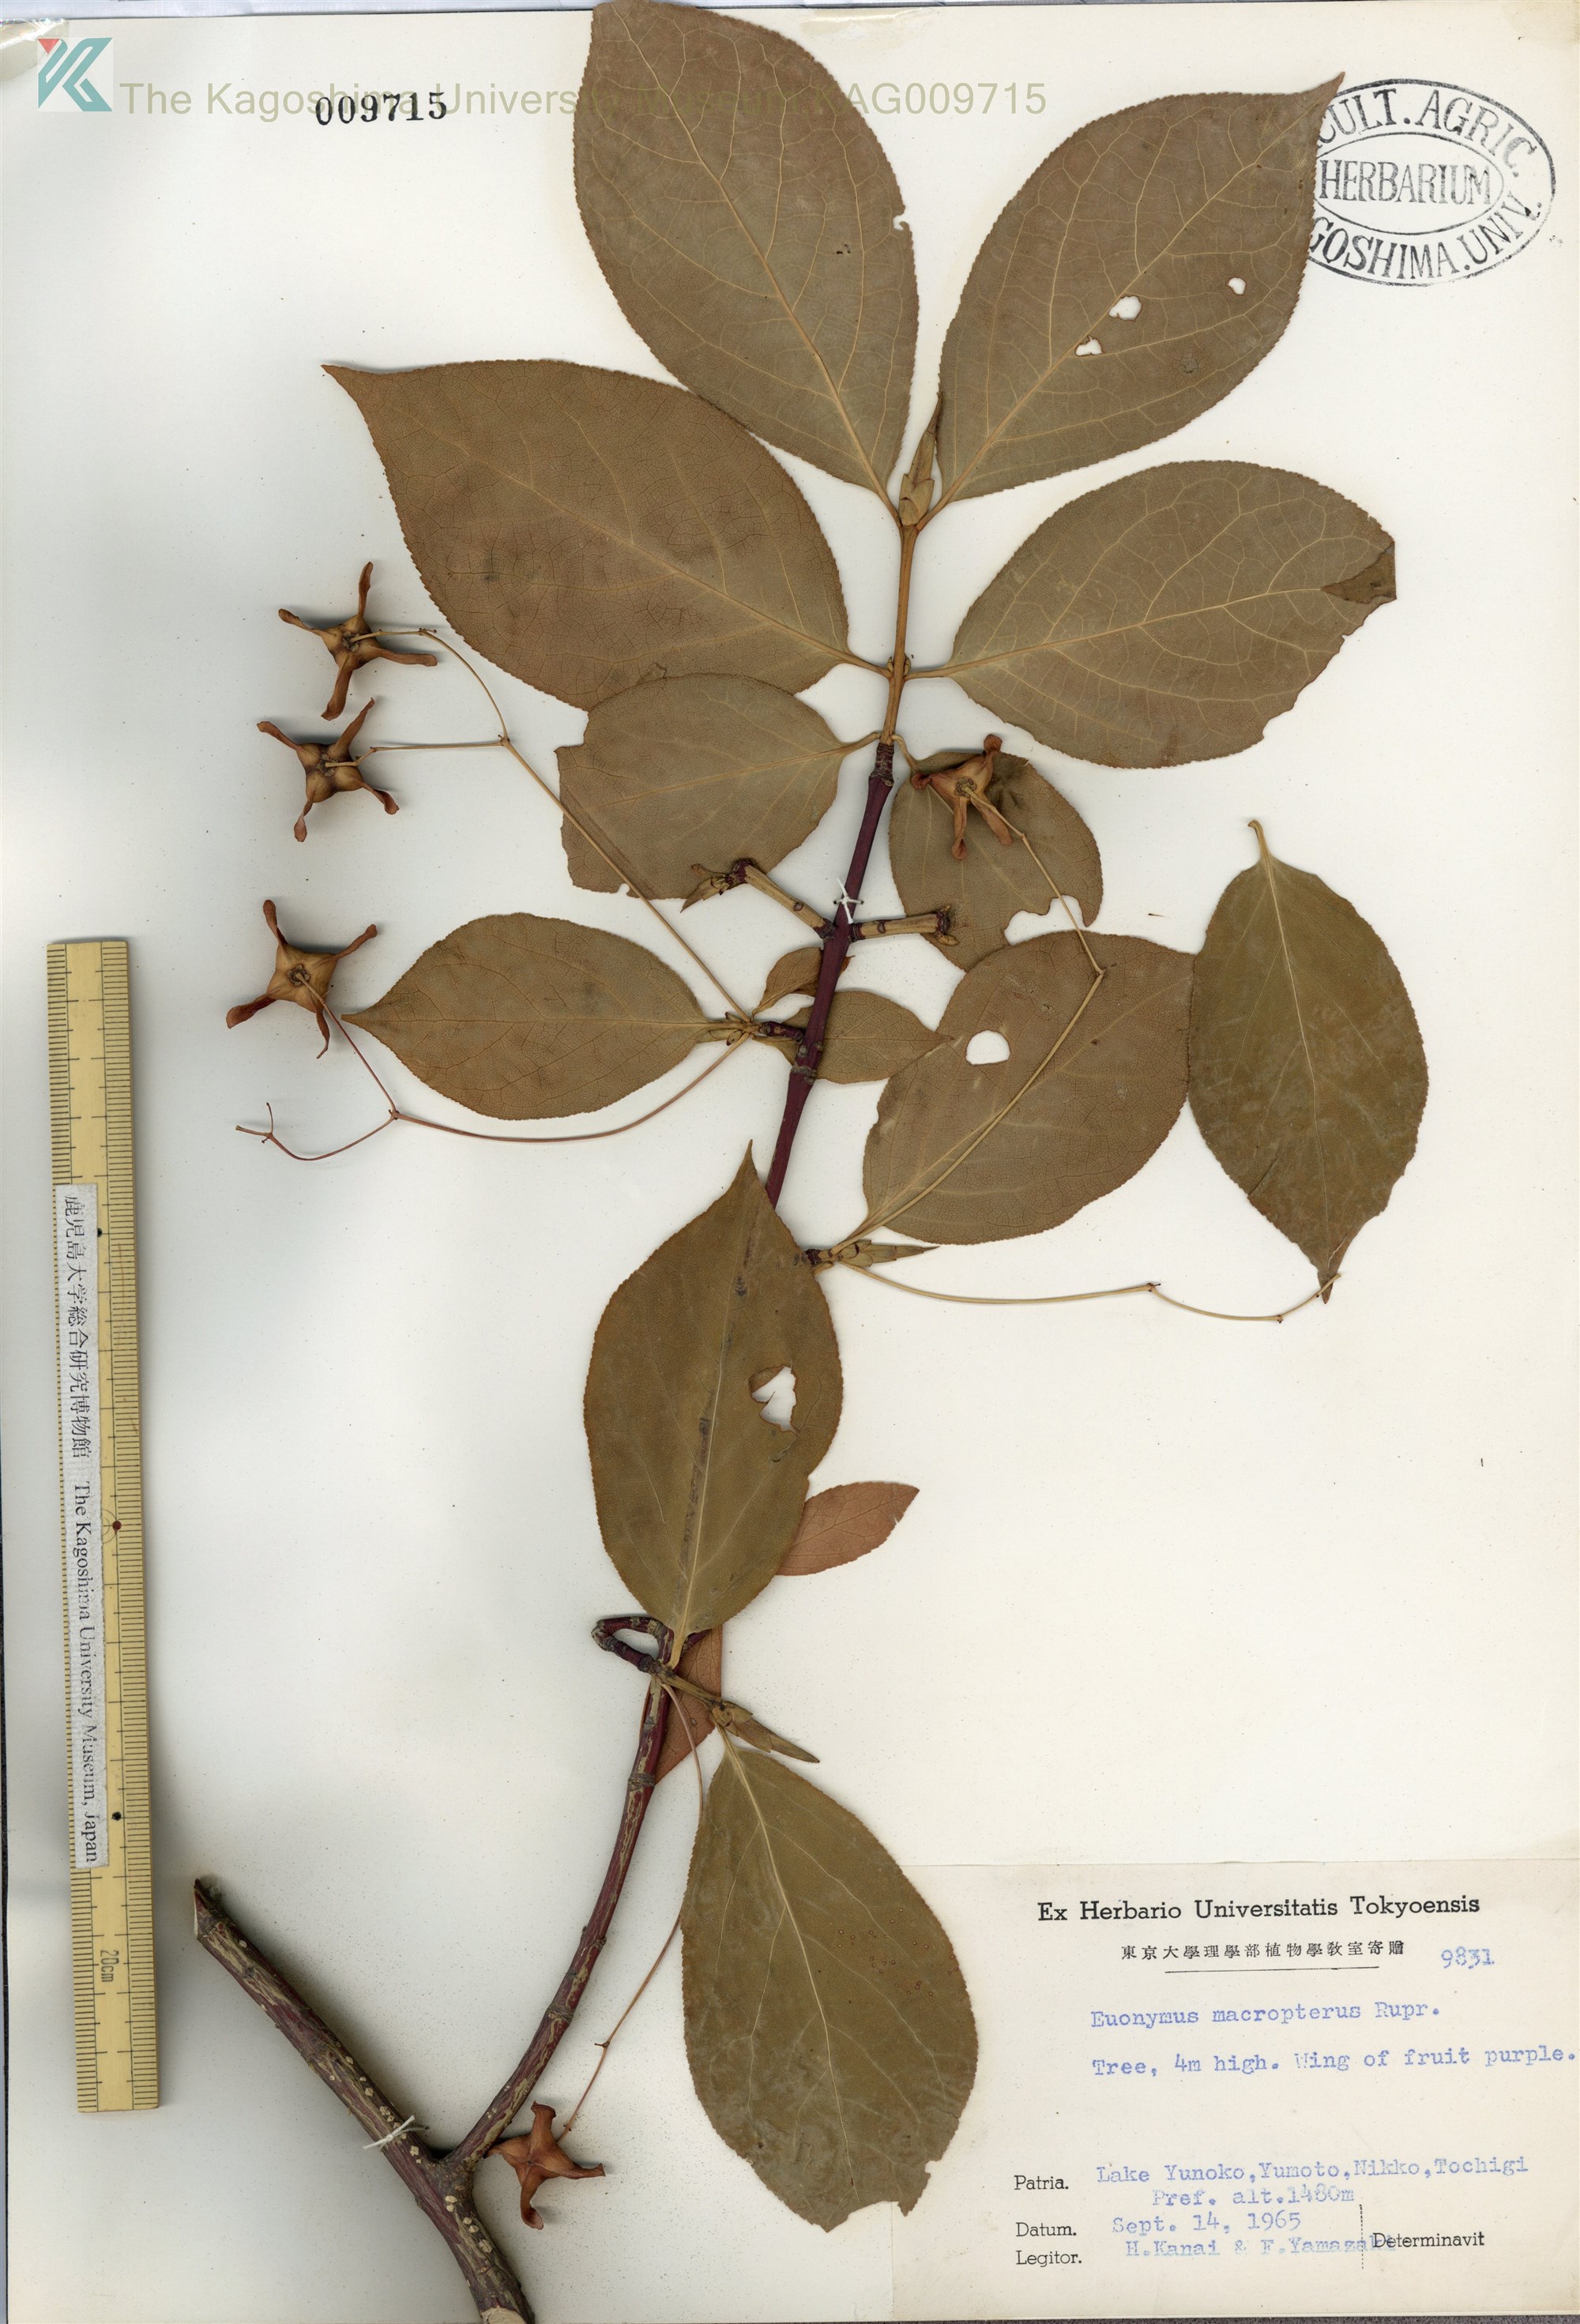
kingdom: Plantae
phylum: Tracheophyta
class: Magnoliopsida
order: Celastrales
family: Celastraceae
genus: Euonymus
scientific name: Euonymus macropterus
